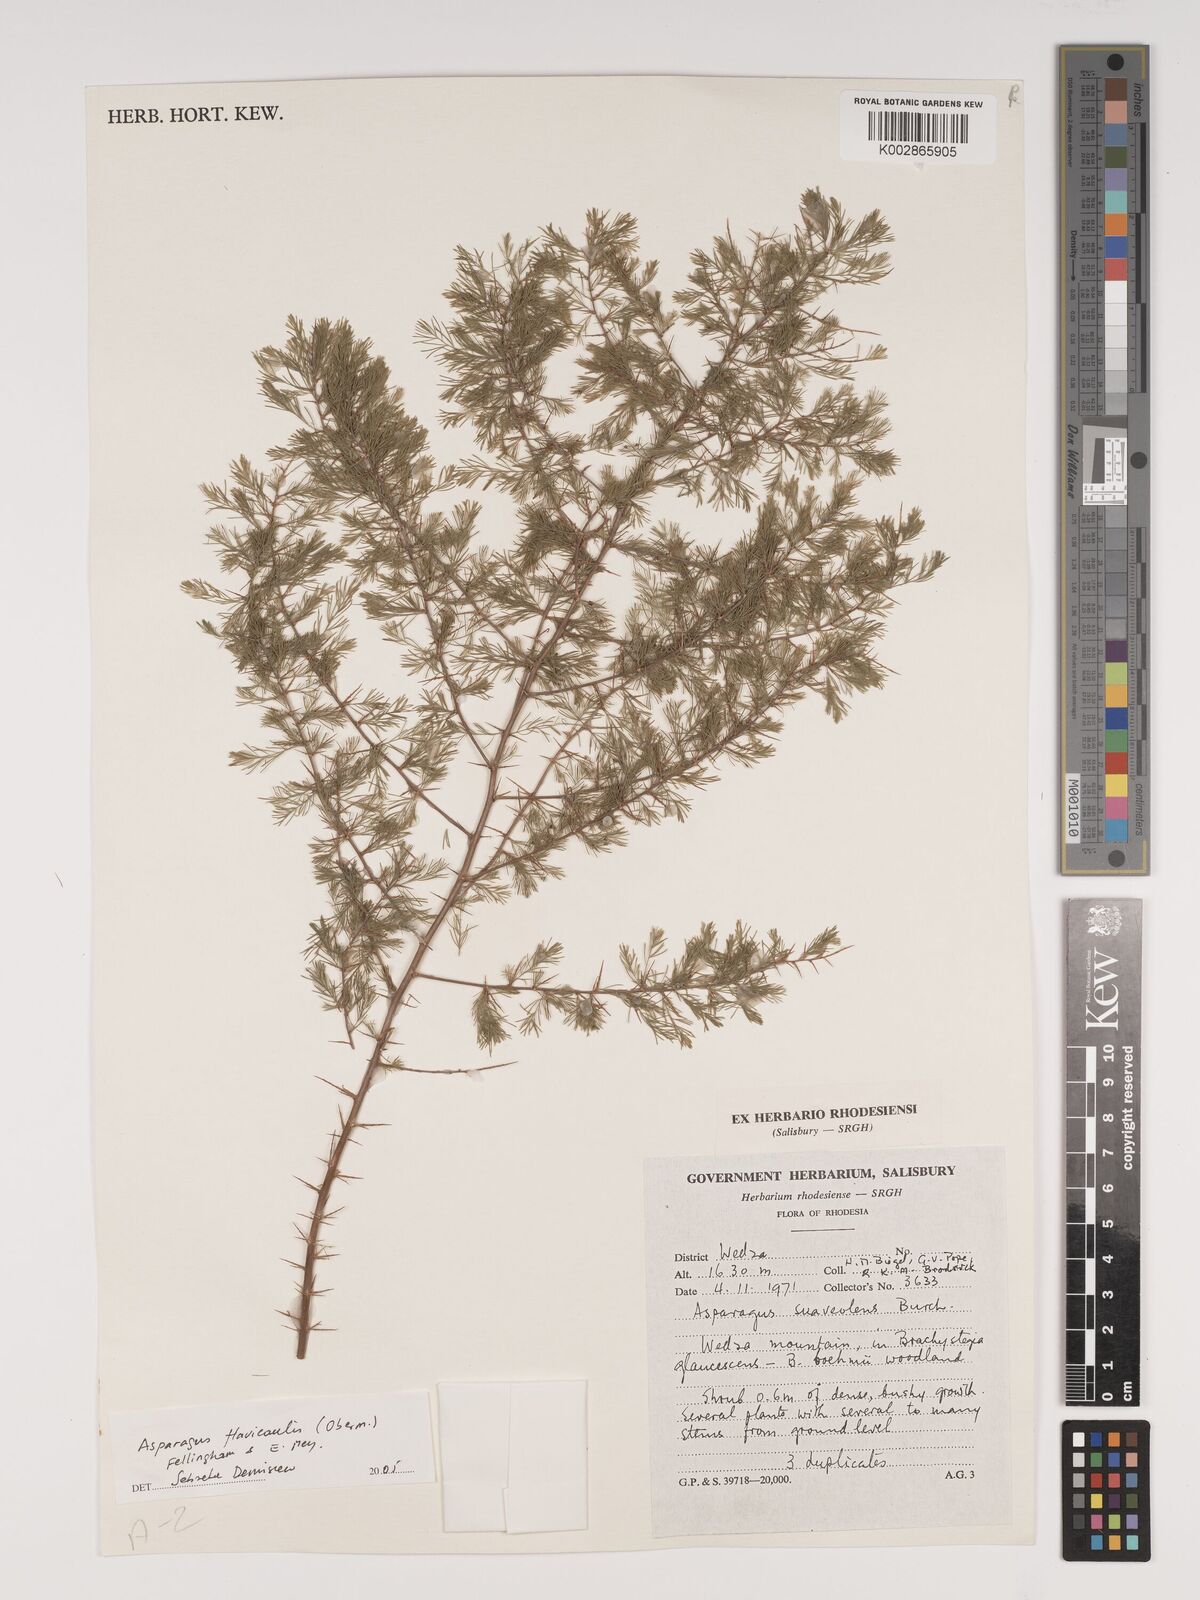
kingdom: Plantae
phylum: Tracheophyta
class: Liliopsida
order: Asparagales
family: Asparagaceae
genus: Asparagus
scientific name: Asparagus flavicaulis
